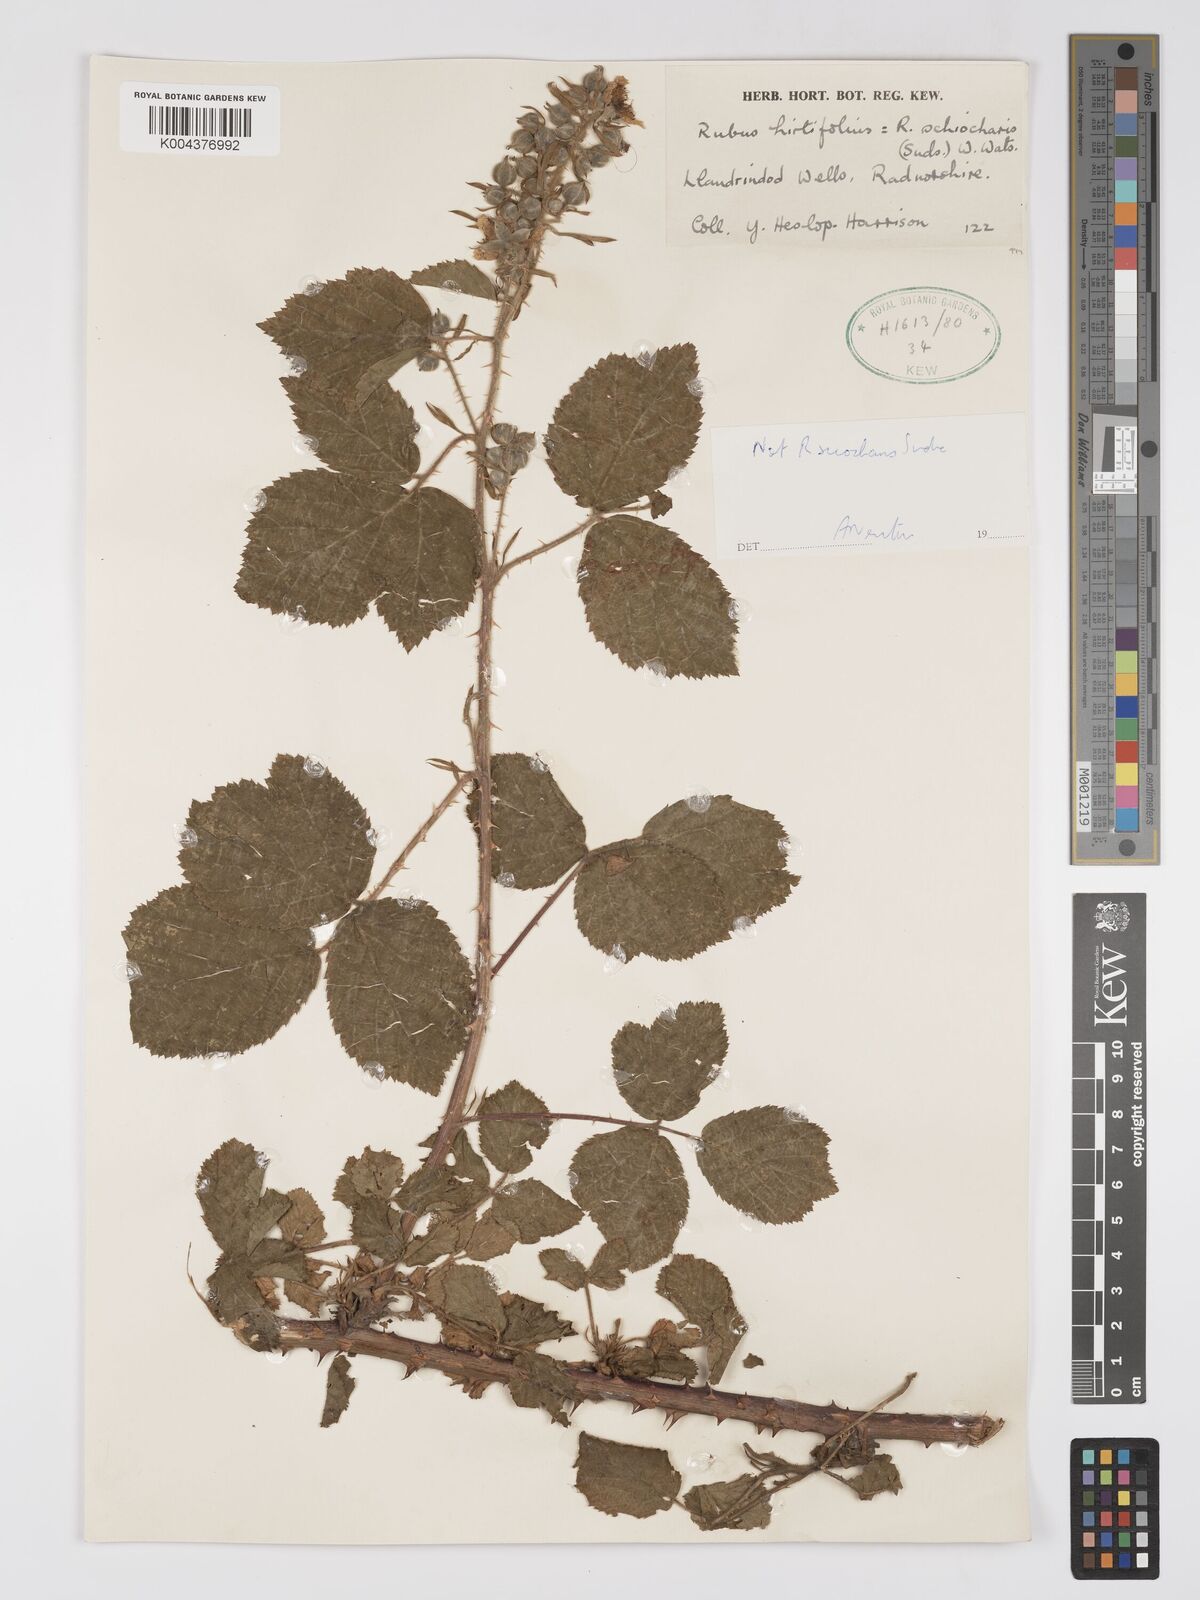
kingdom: Plantae
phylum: Tracheophyta
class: Magnoliopsida
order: Rosales
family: Rosaceae
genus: Rubus
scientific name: Rubus sciocharis
